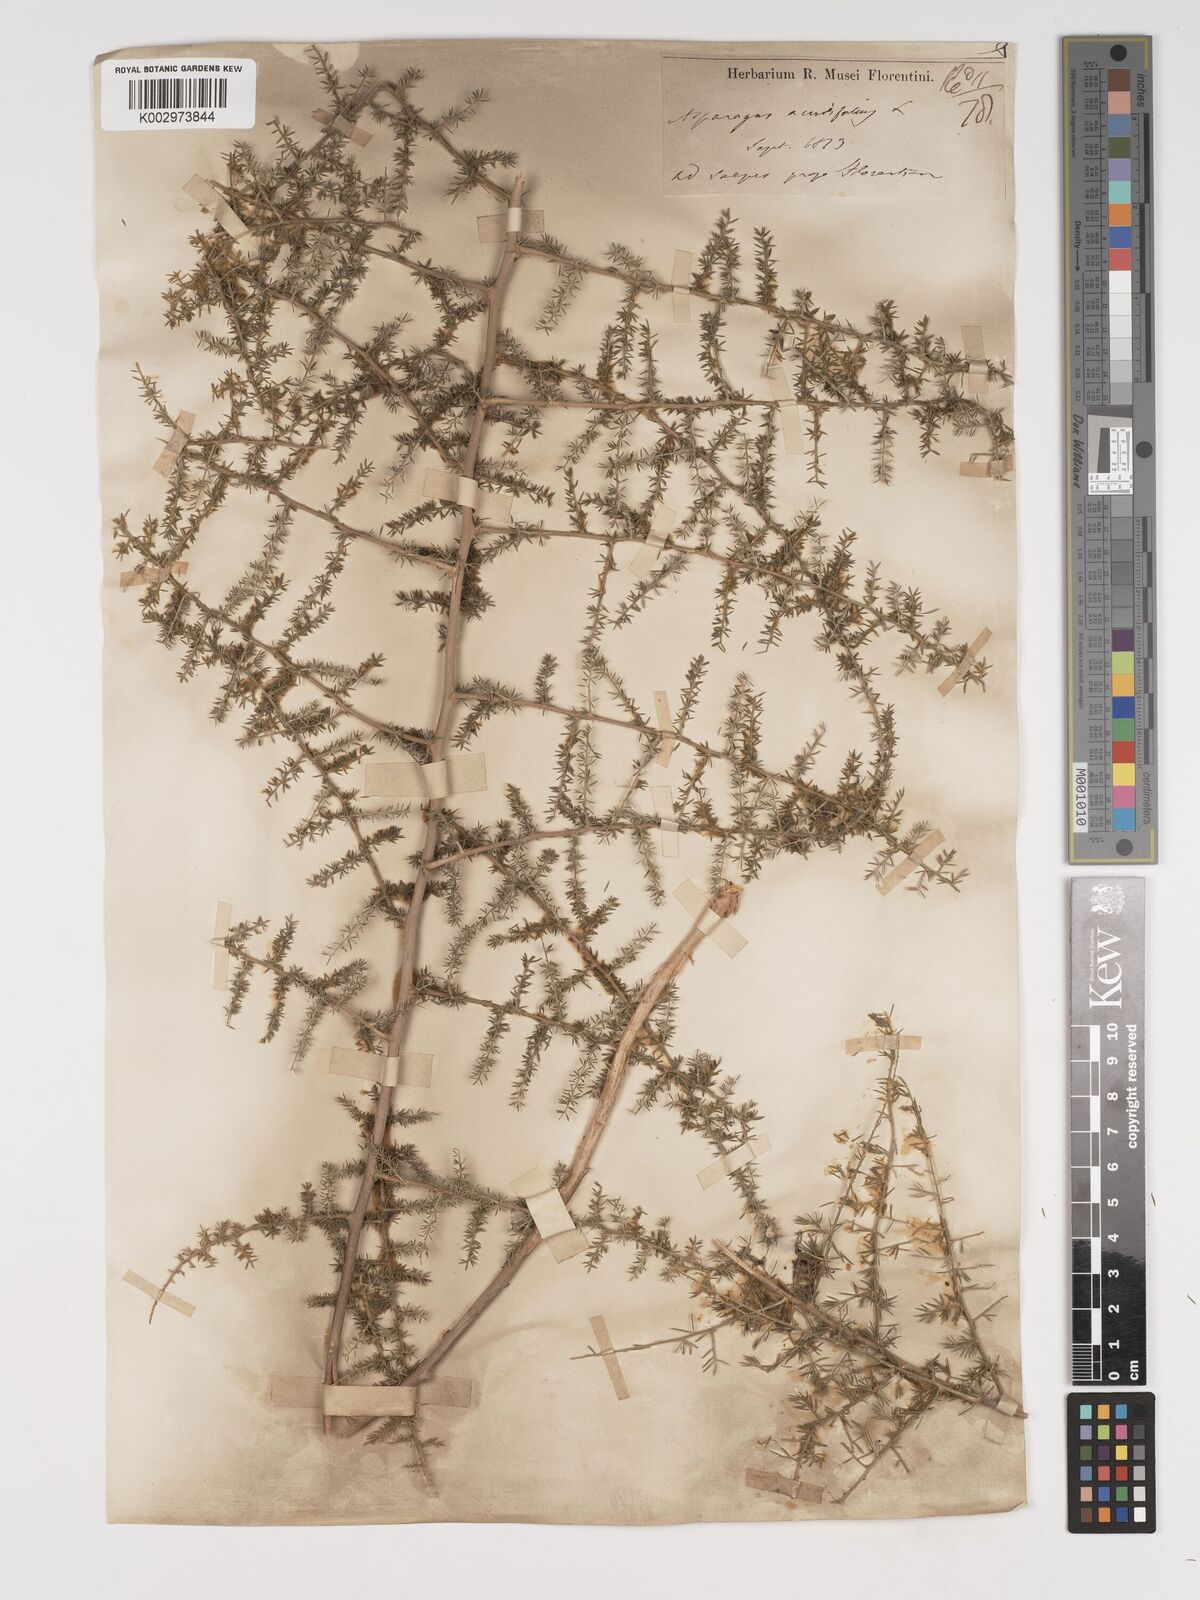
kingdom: Plantae
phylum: Tracheophyta
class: Liliopsida
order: Asparagales
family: Asparagaceae
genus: Asparagus
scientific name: Asparagus acutifolius
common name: Wild asparagus
